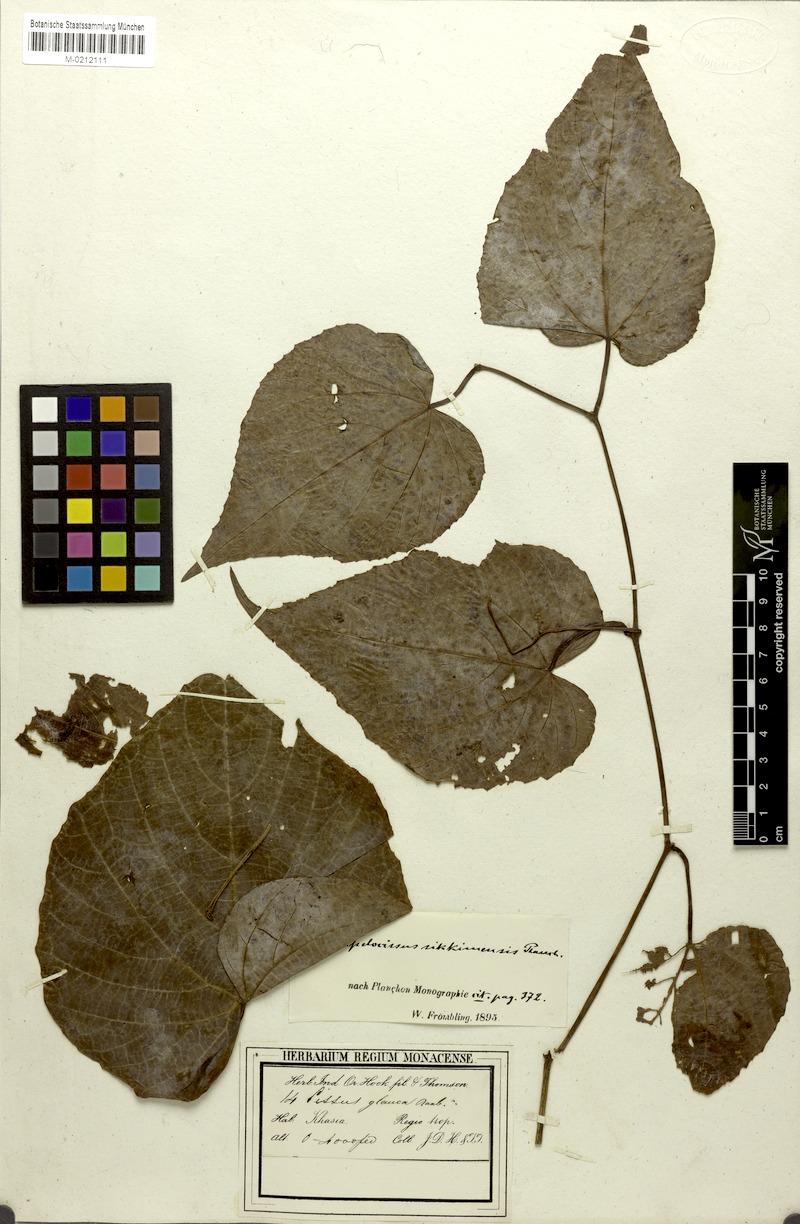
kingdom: Plantae
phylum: Tracheophyta
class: Magnoliopsida
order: Vitales
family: Vitaceae
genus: Ampelocissus
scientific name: Ampelocissus sikkimensis
